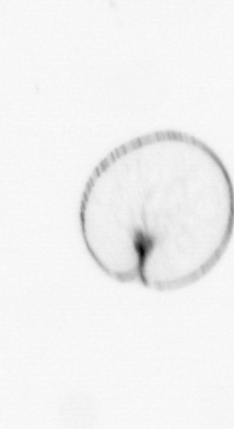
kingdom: Chromista
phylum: Myzozoa
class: Dinophyceae
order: Noctilucales
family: Noctilucaceae
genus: Noctiluca
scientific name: Noctiluca scintillans
